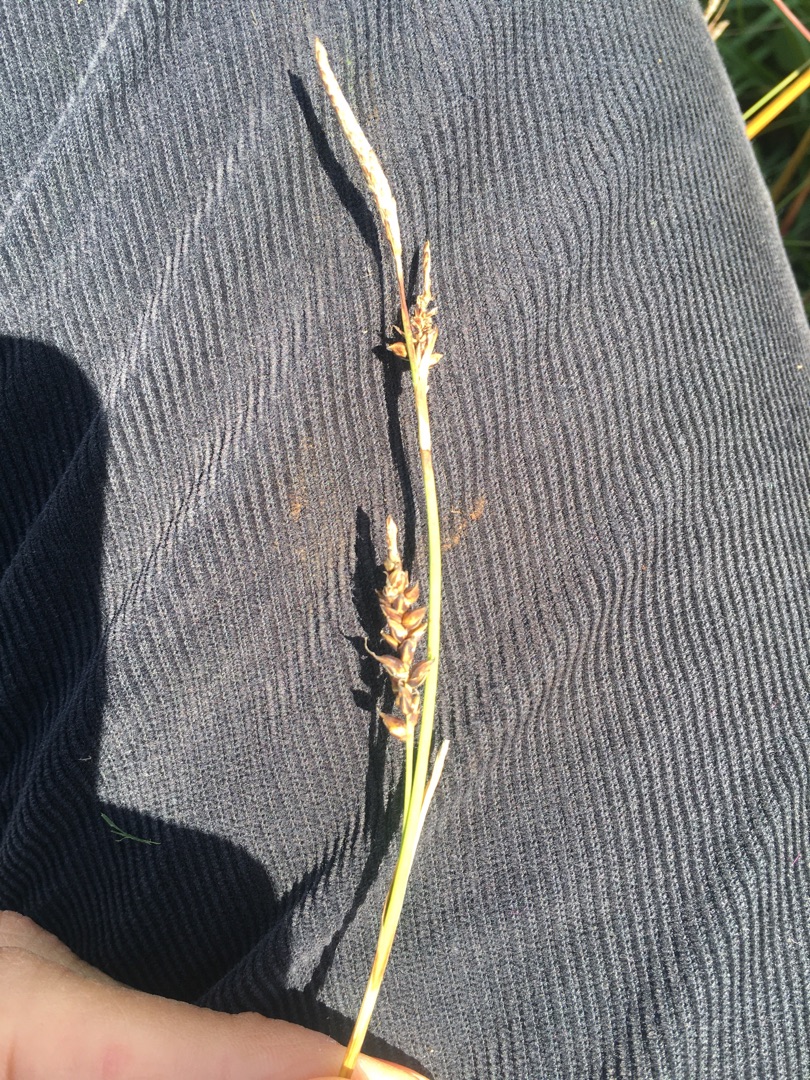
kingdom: Plantae
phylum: Tracheophyta
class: Liliopsida
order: Poales
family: Cyperaceae
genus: Carex
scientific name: Carex panicea
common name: Hirse-star
